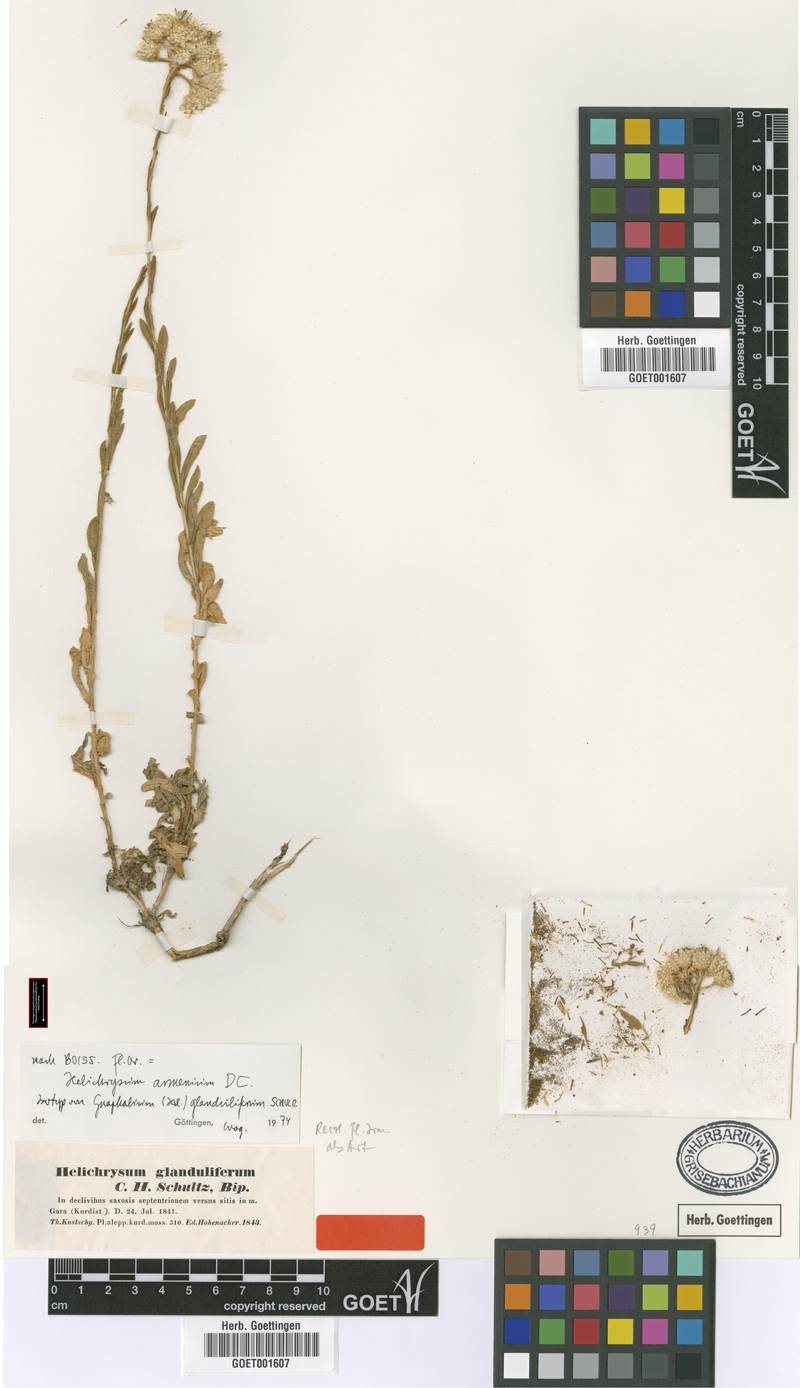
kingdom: Plantae
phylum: Tracheophyta
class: Magnoliopsida
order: Asterales
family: Asteraceae
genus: Helichrysum
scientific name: Helichrysum armenium
